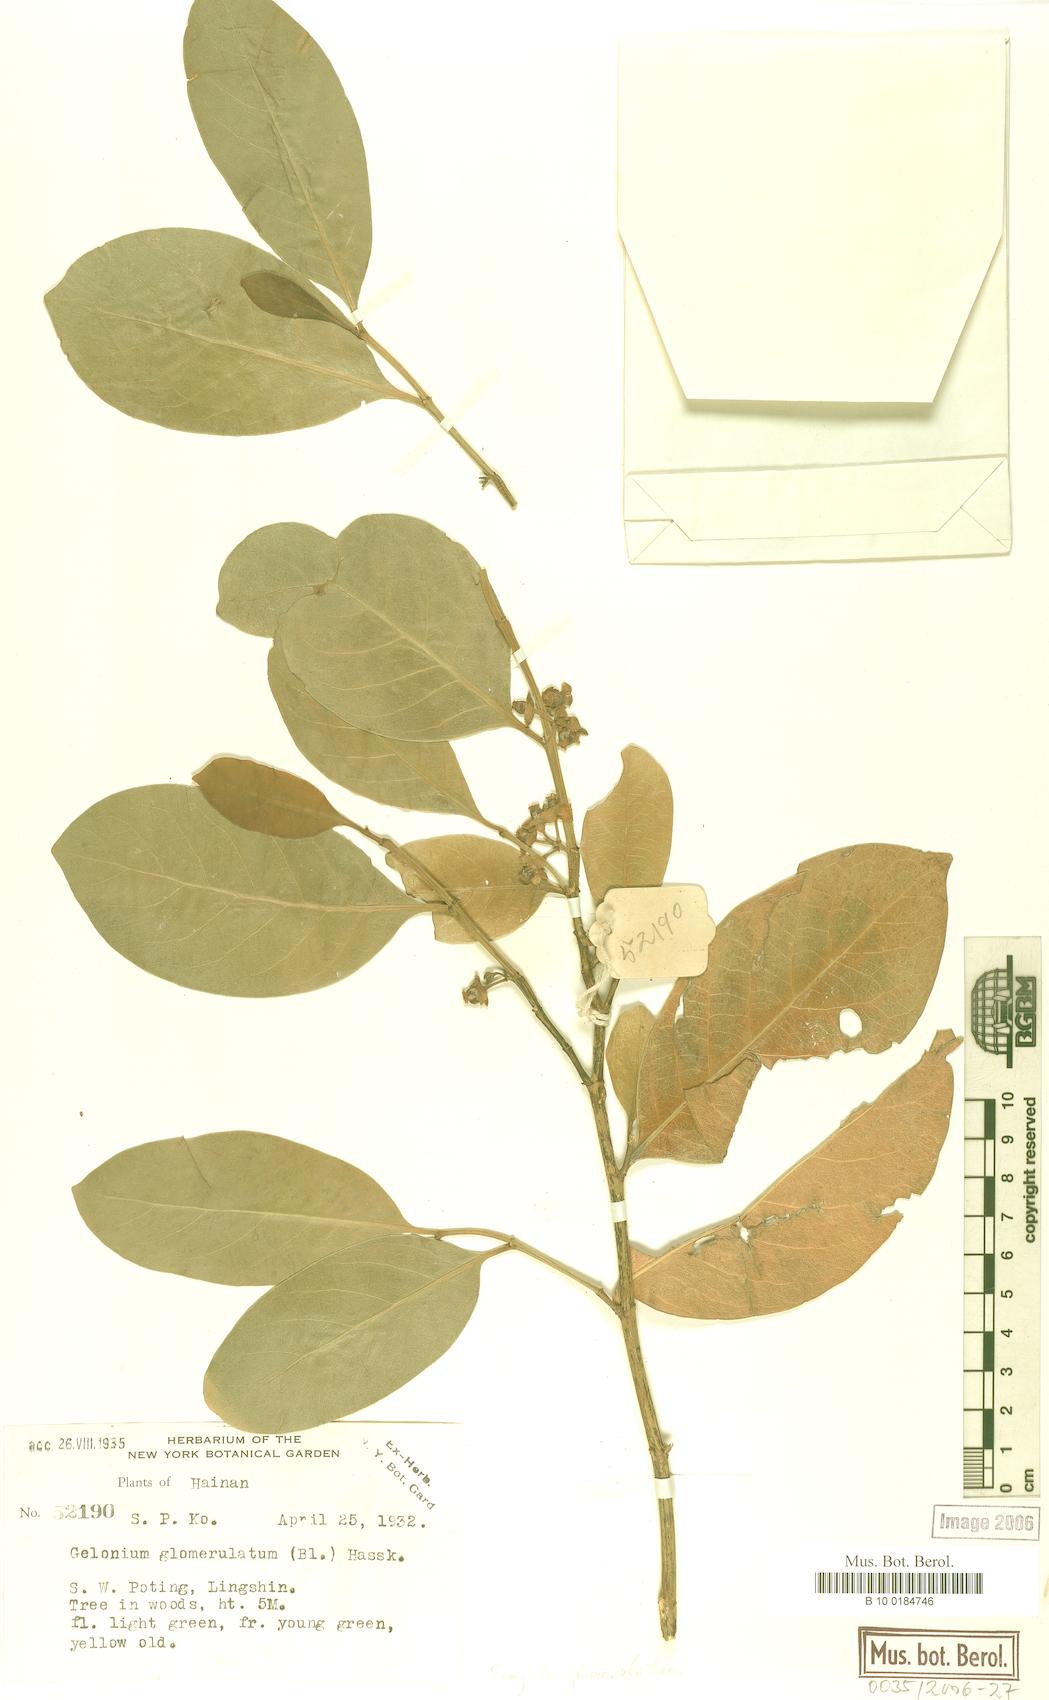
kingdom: Plantae
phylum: Tracheophyta
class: Magnoliopsida
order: Malpighiales
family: Euphorbiaceae
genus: Suregada
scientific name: Suregada glomerulata
